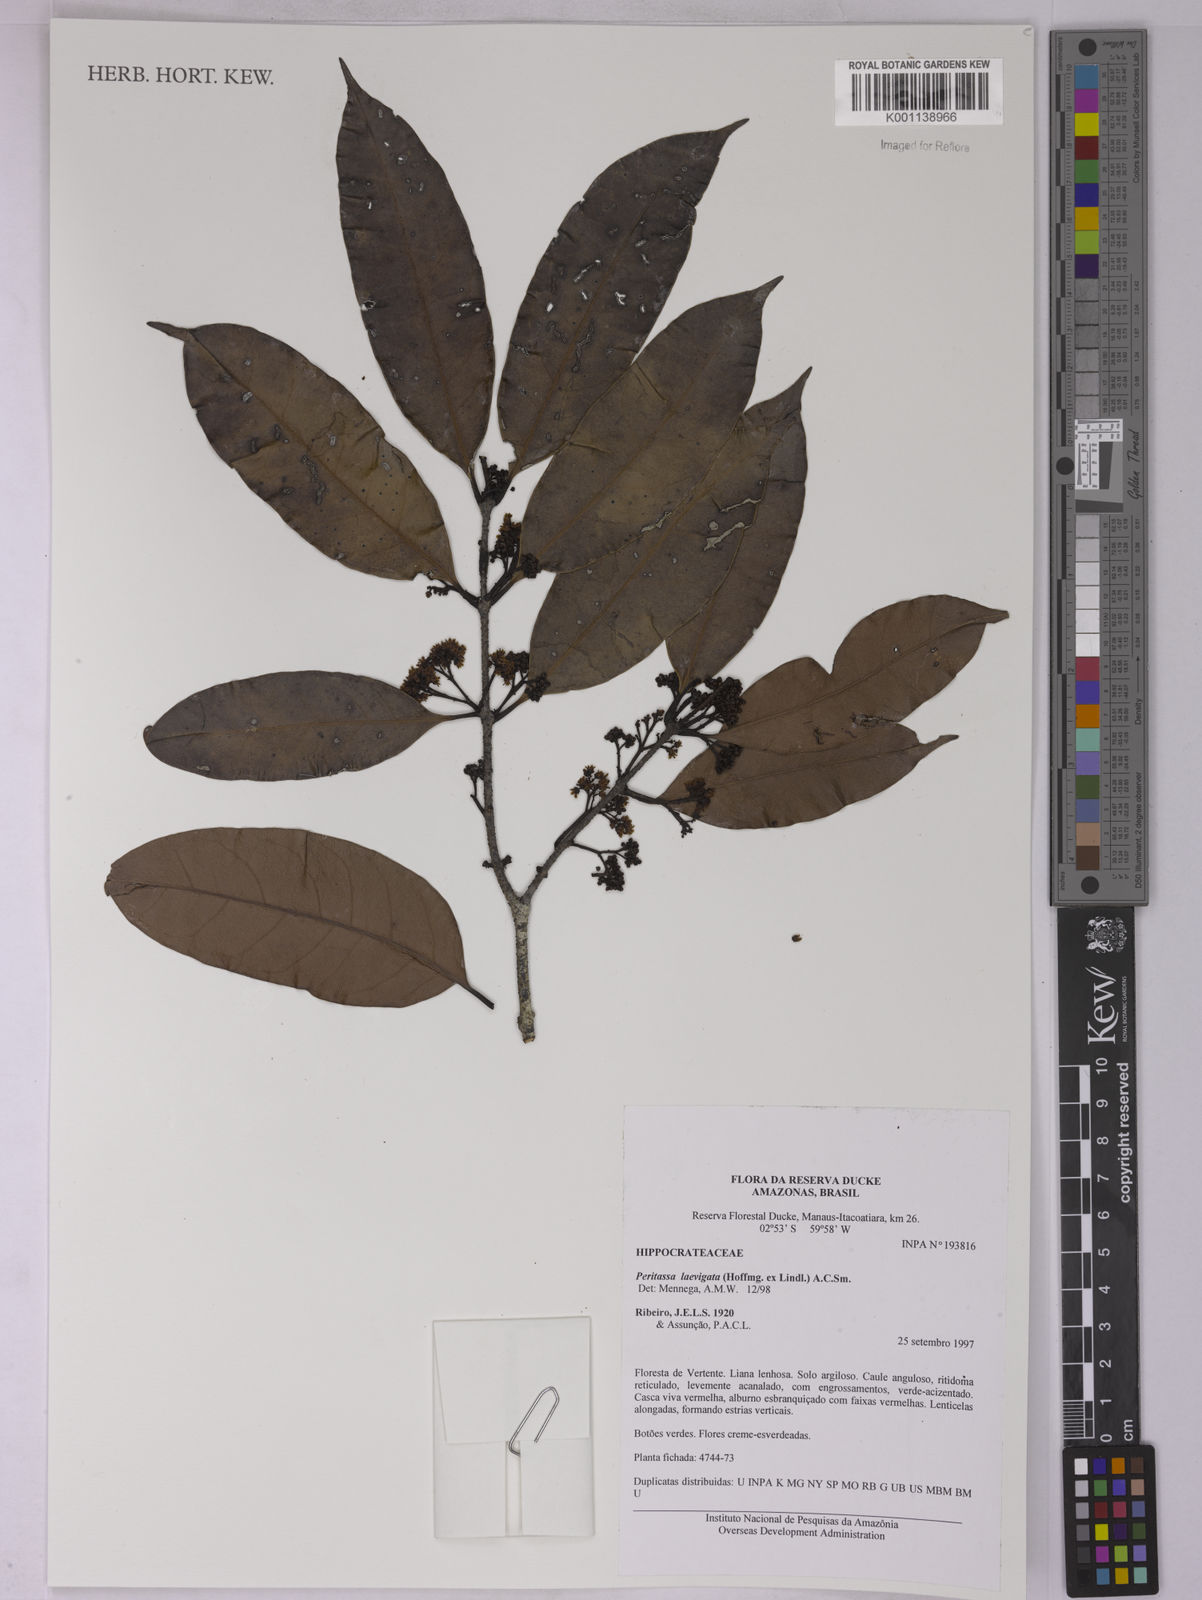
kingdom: Plantae
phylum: Tracheophyta
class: Magnoliopsida
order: Celastrales
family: Celastraceae
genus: Peritassa
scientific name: Peritassa laevigata
